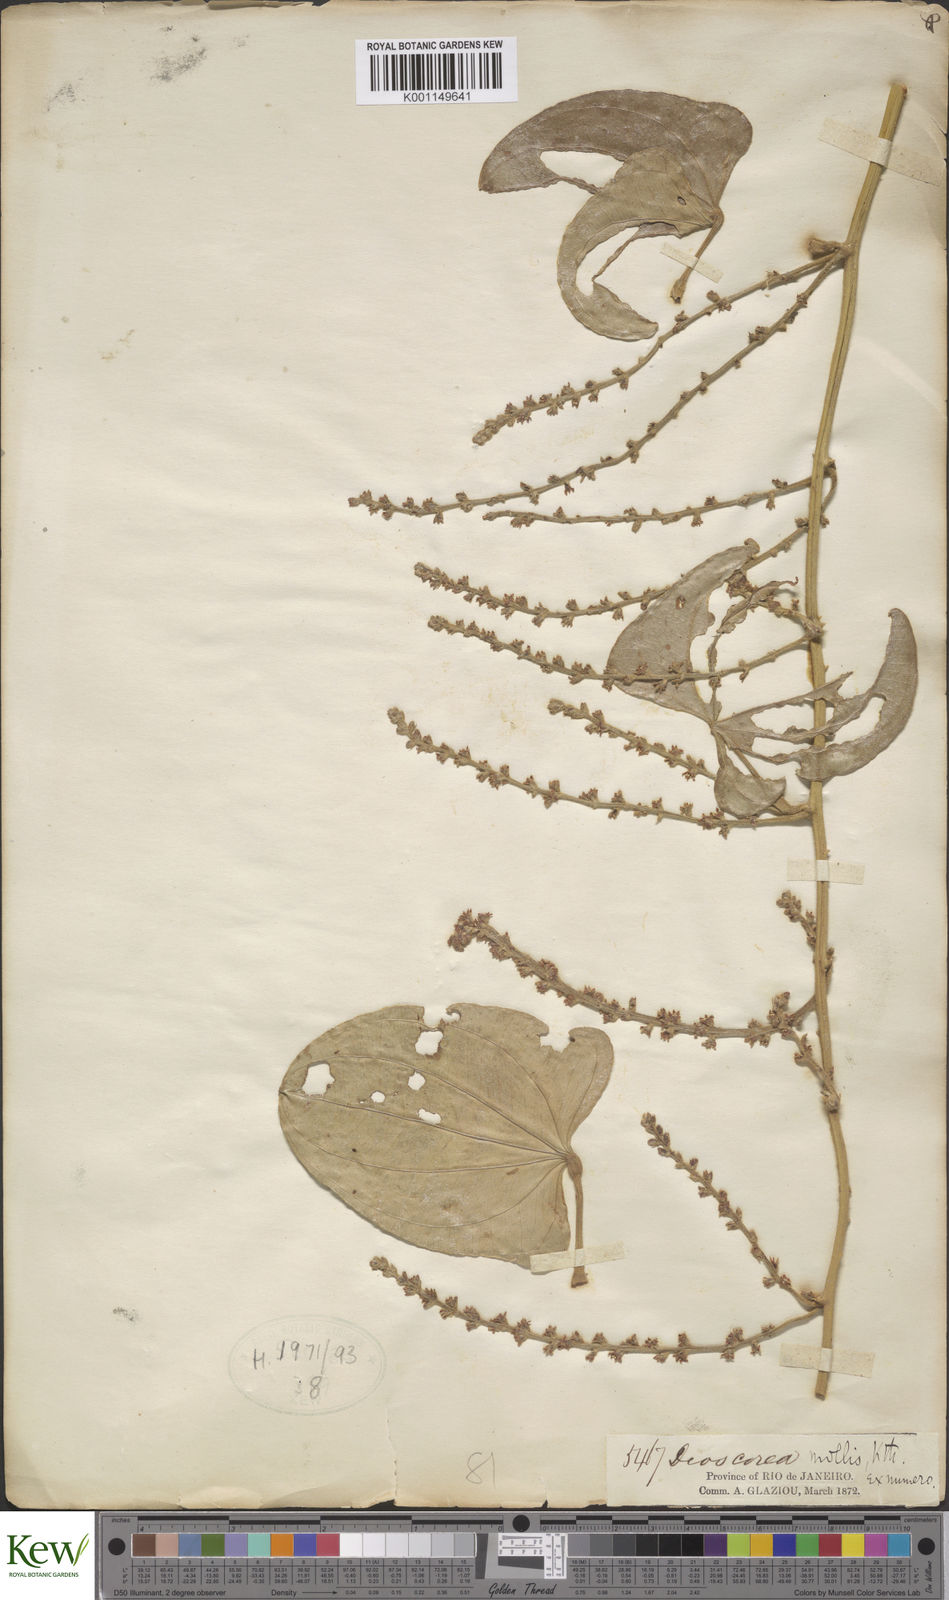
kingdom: Plantae
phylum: Tracheophyta
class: Liliopsida
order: Dioscoreales
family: Dioscoreaceae
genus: Dioscorea
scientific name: Dioscorea mollis
